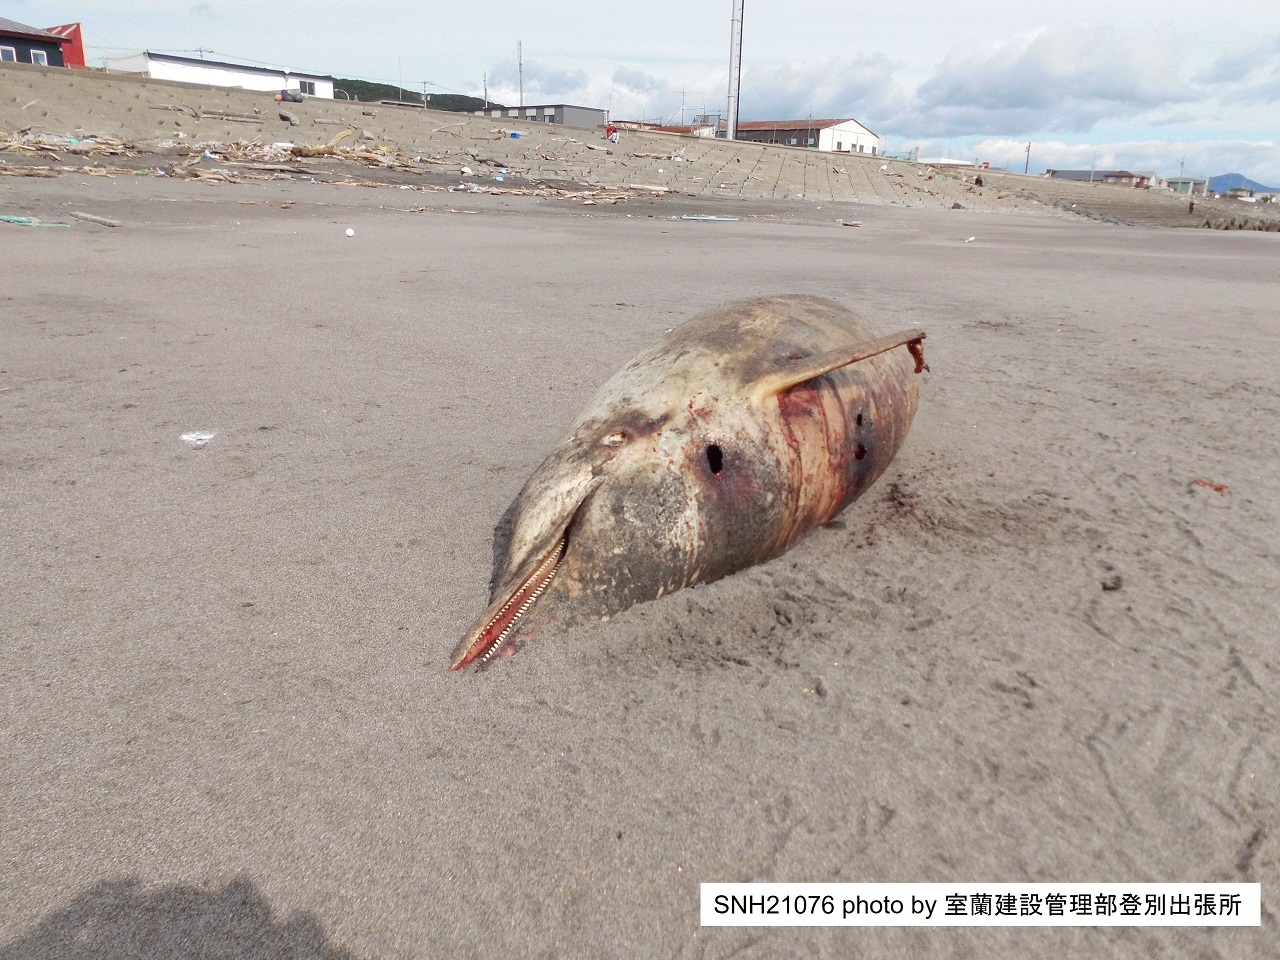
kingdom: Animalia
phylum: Chordata
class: Mammalia
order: Cetacea
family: Delphinidae
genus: Stenella
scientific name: Stenella coeruleoalba
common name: Striped dolphin
